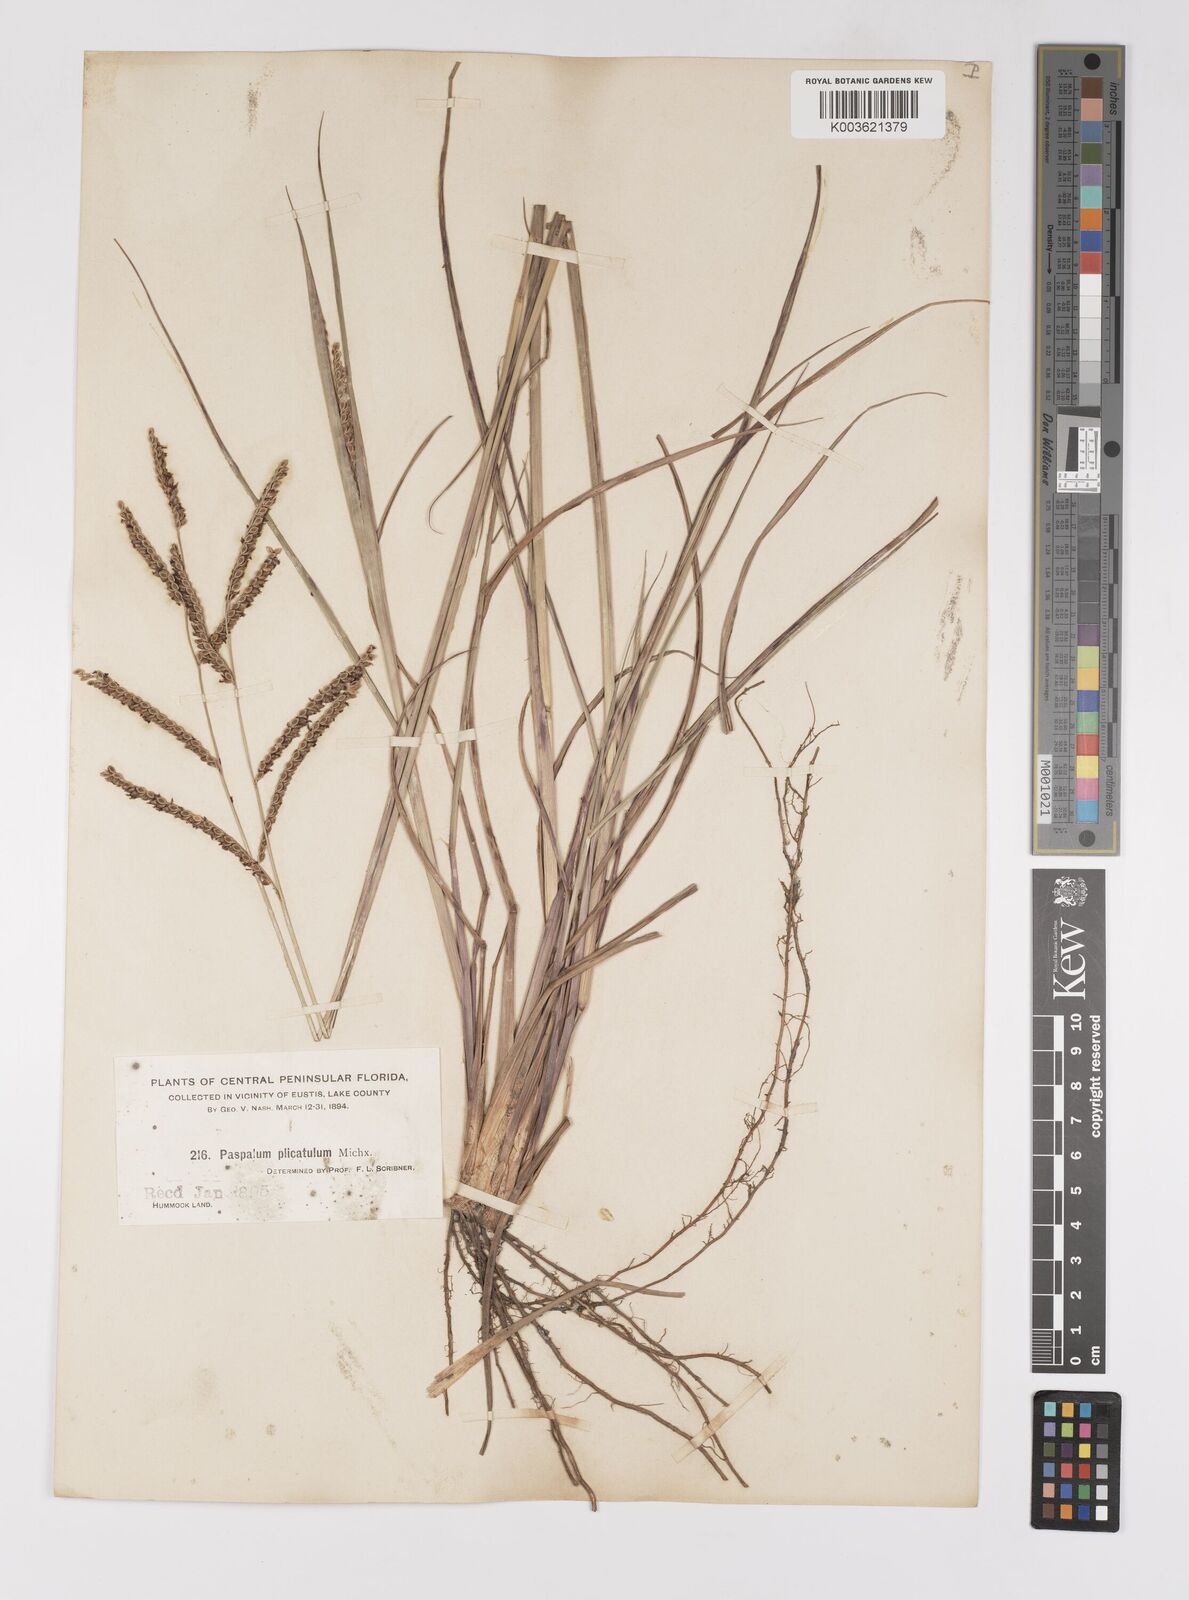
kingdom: Plantae
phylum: Tracheophyta
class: Liliopsida
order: Poales
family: Poaceae
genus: Paspalum
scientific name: Paspalum plicatulum
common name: Top paspalum
